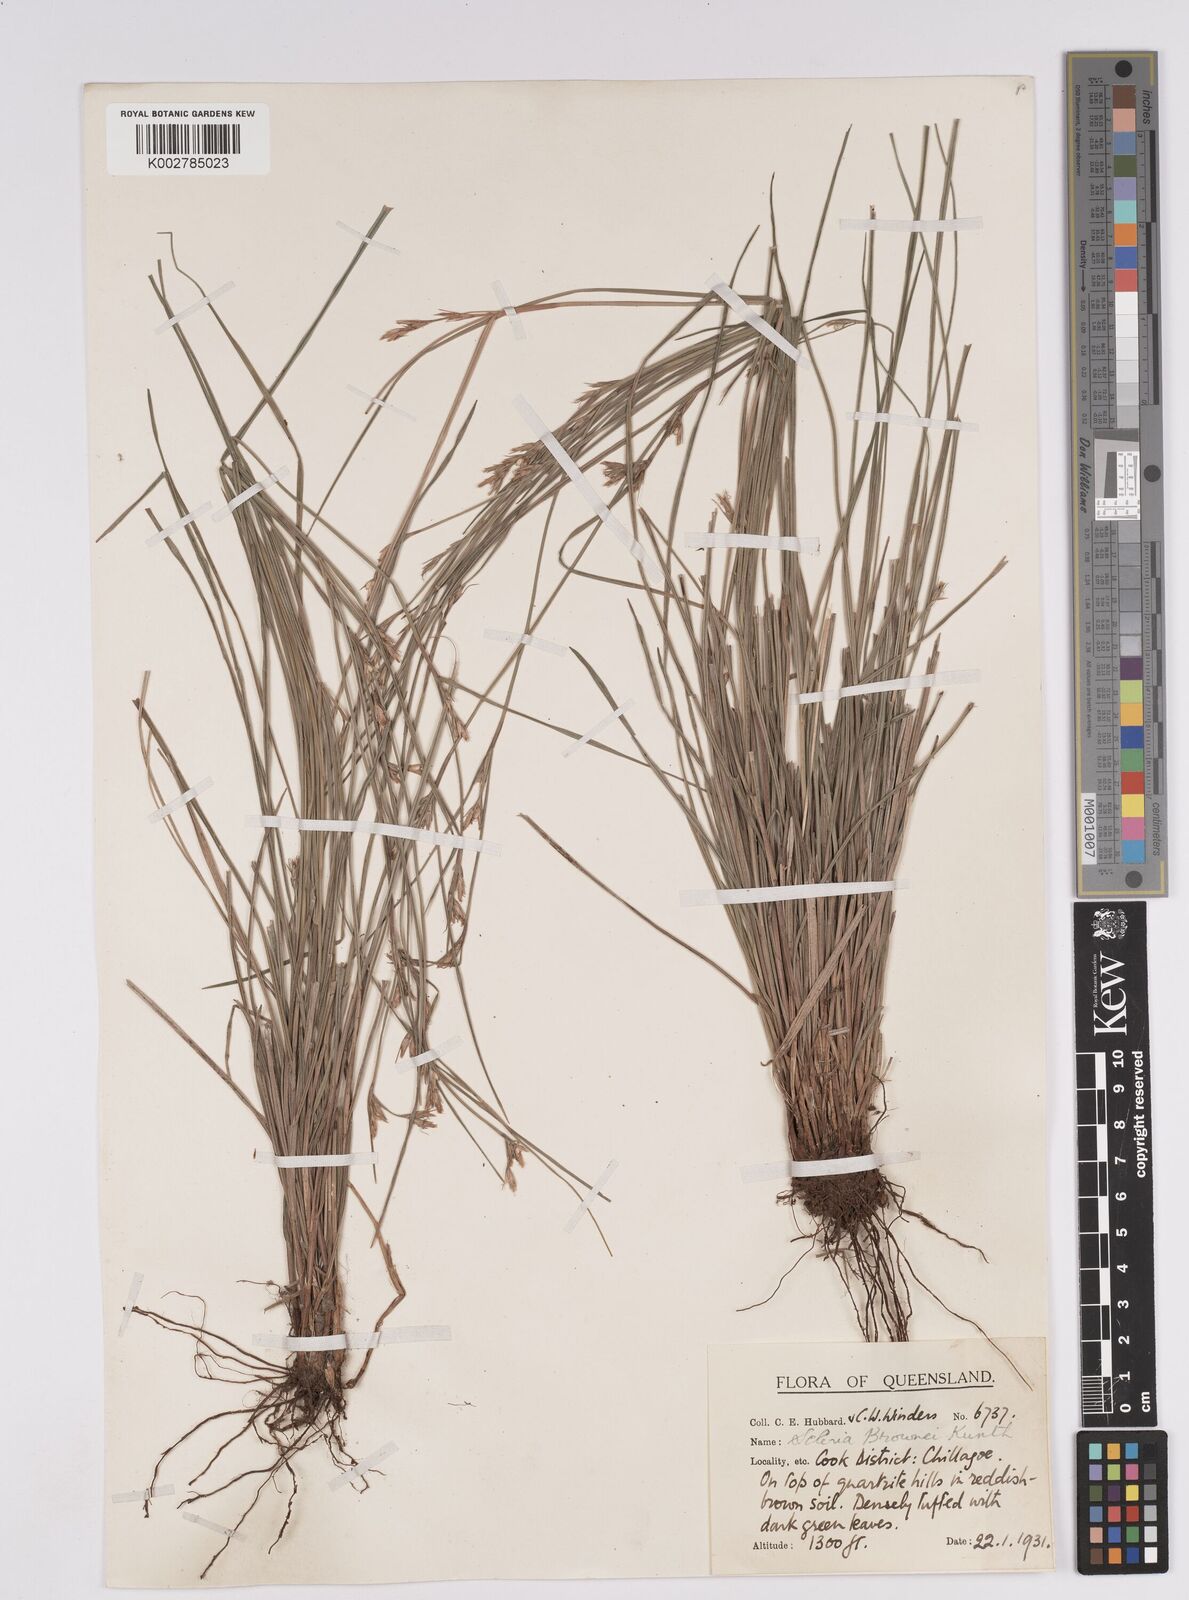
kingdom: Plantae
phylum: Tracheophyta
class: Liliopsida
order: Poales
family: Cyperaceae
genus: Scleria
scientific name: Scleria brownii
